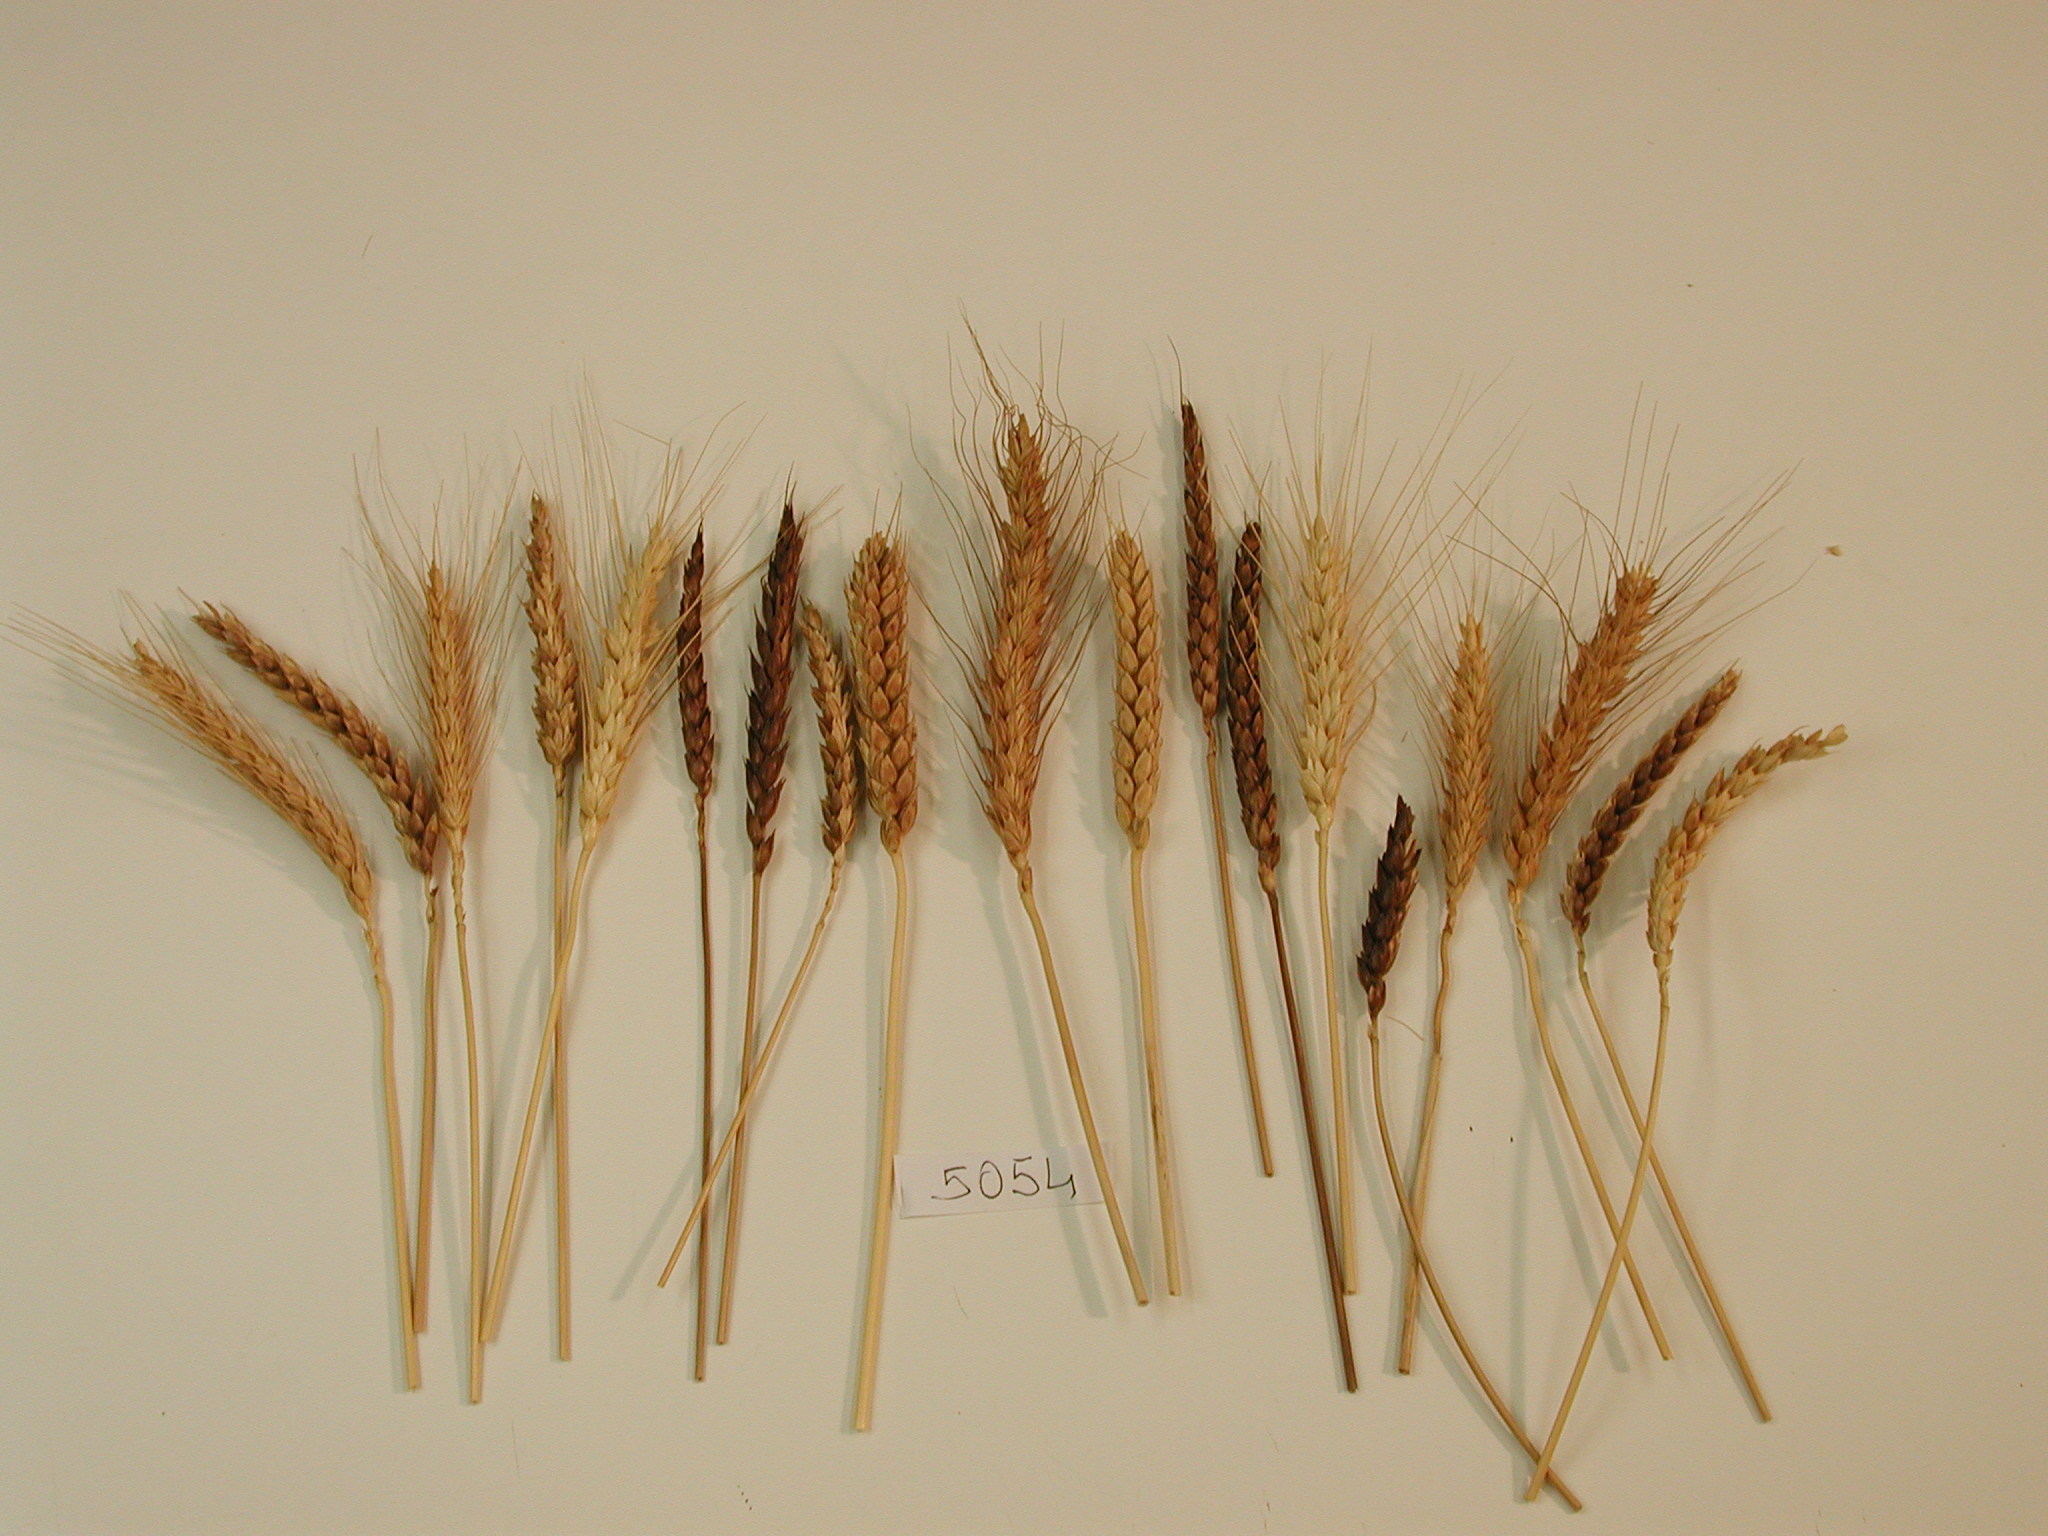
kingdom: Plantae
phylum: Tracheophyta
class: Liliopsida
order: Poales
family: Poaceae
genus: Triticum
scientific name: Triticum aestivum
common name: Wheat
